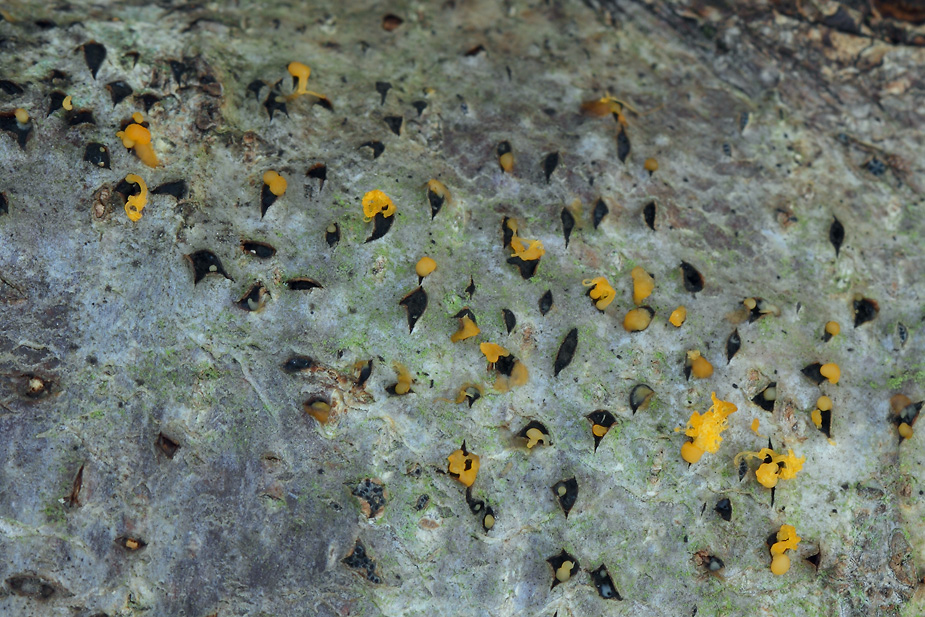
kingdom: Fungi
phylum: Ascomycota
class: Sordariomycetes
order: Diaporthales
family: Valsaceae
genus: Cytospora
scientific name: Cytospora chrysosperma
